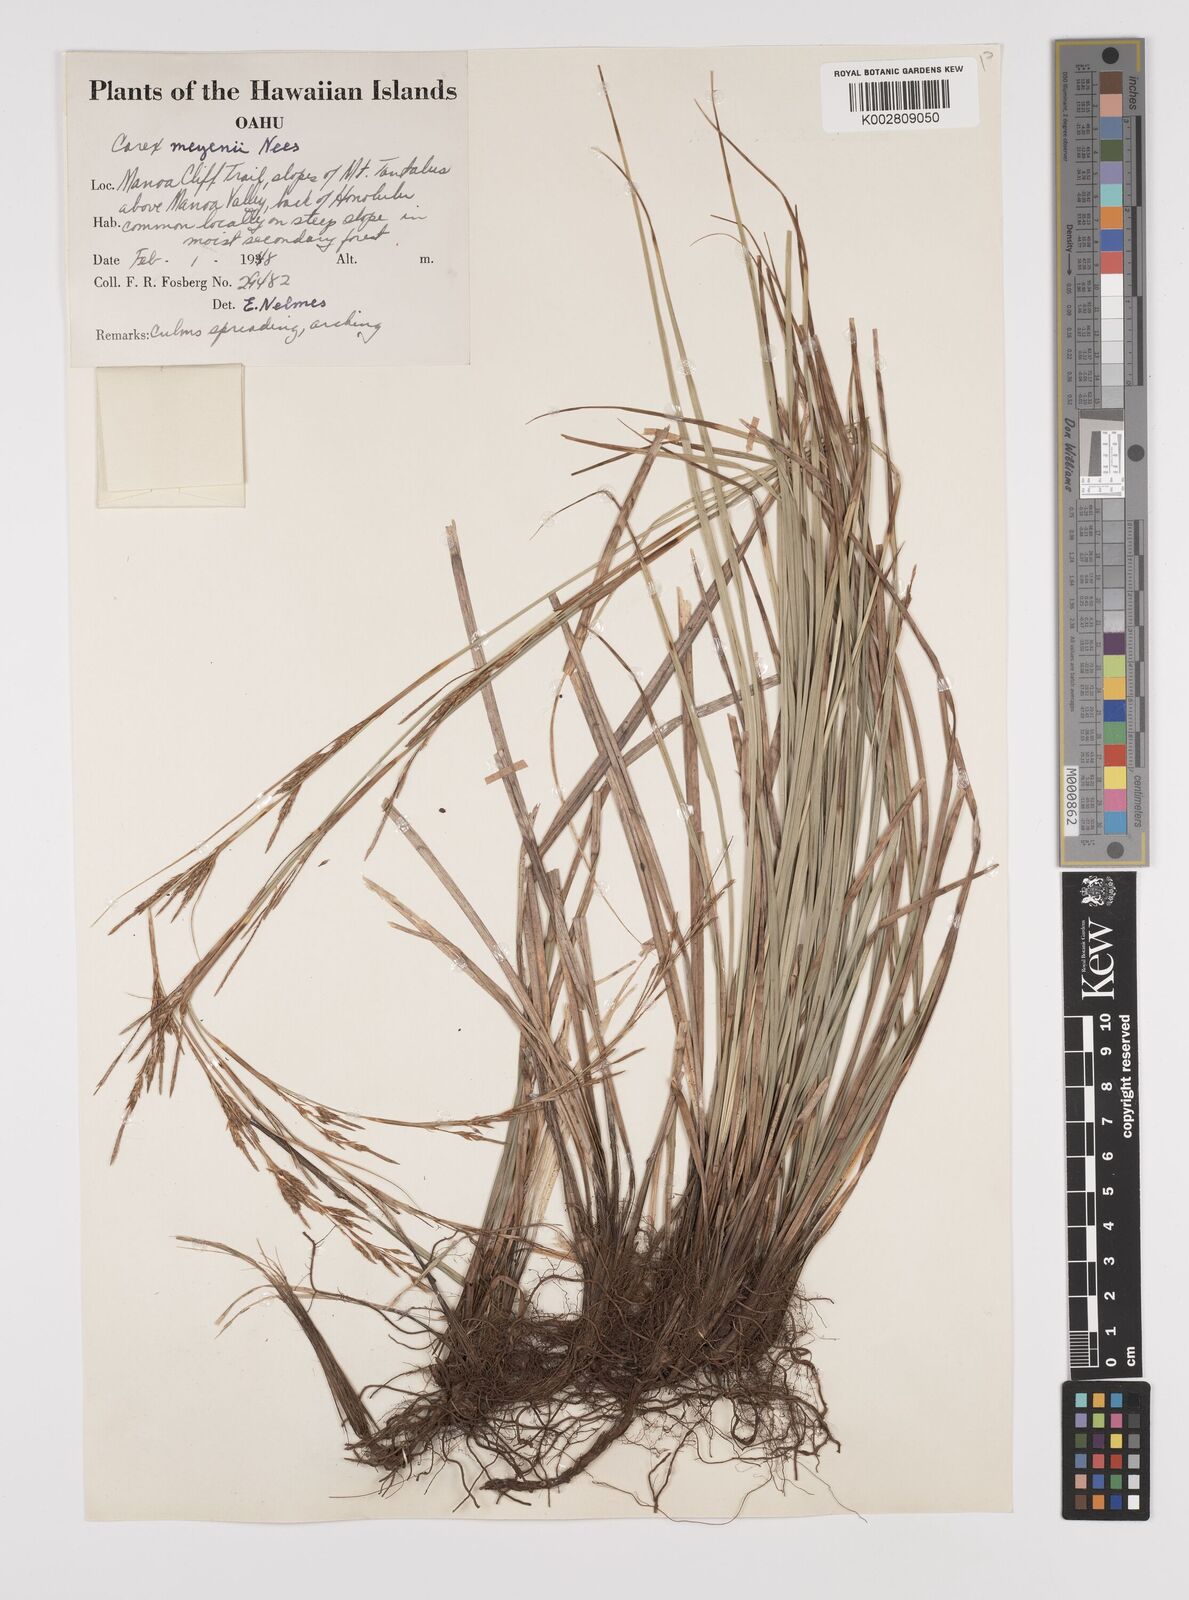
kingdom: Plantae
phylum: Tracheophyta
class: Liliopsida
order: Poales
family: Cyperaceae
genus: Carex
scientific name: Carex brunnea
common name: Greater brown sedge
